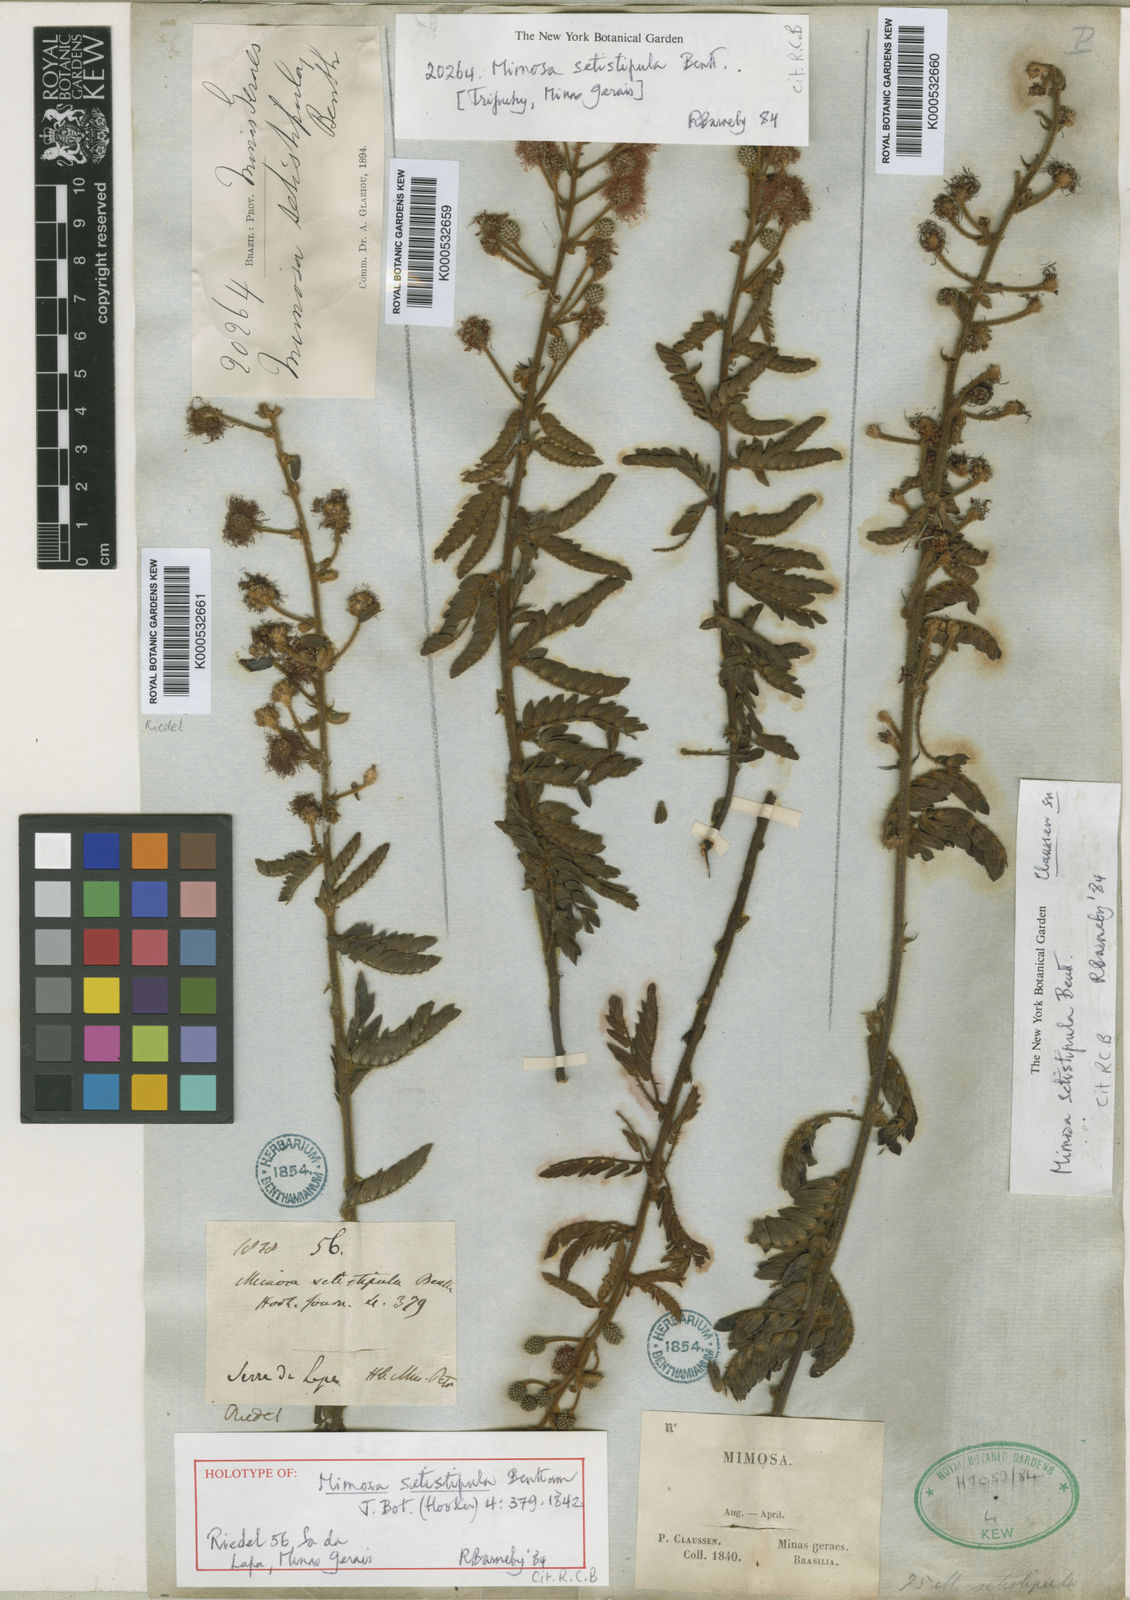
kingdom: Plantae
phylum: Tracheophyta
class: Magnoliopsida
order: Fabales
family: Fabaceae
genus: Mimosa
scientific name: Mimosa setistipula
